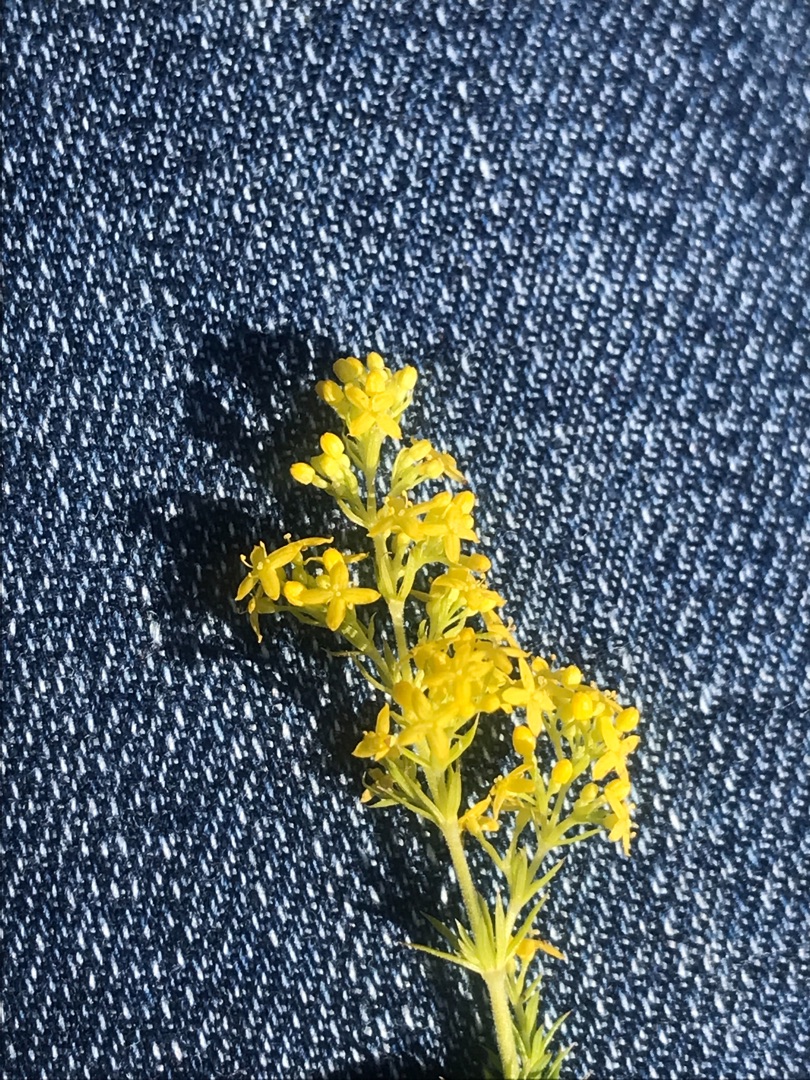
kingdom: Plantae
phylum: Tracheophyta
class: Magnoliopsida
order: Gentianales
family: Rubiaceae
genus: Galium
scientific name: Galium verum
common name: Gul snerre
